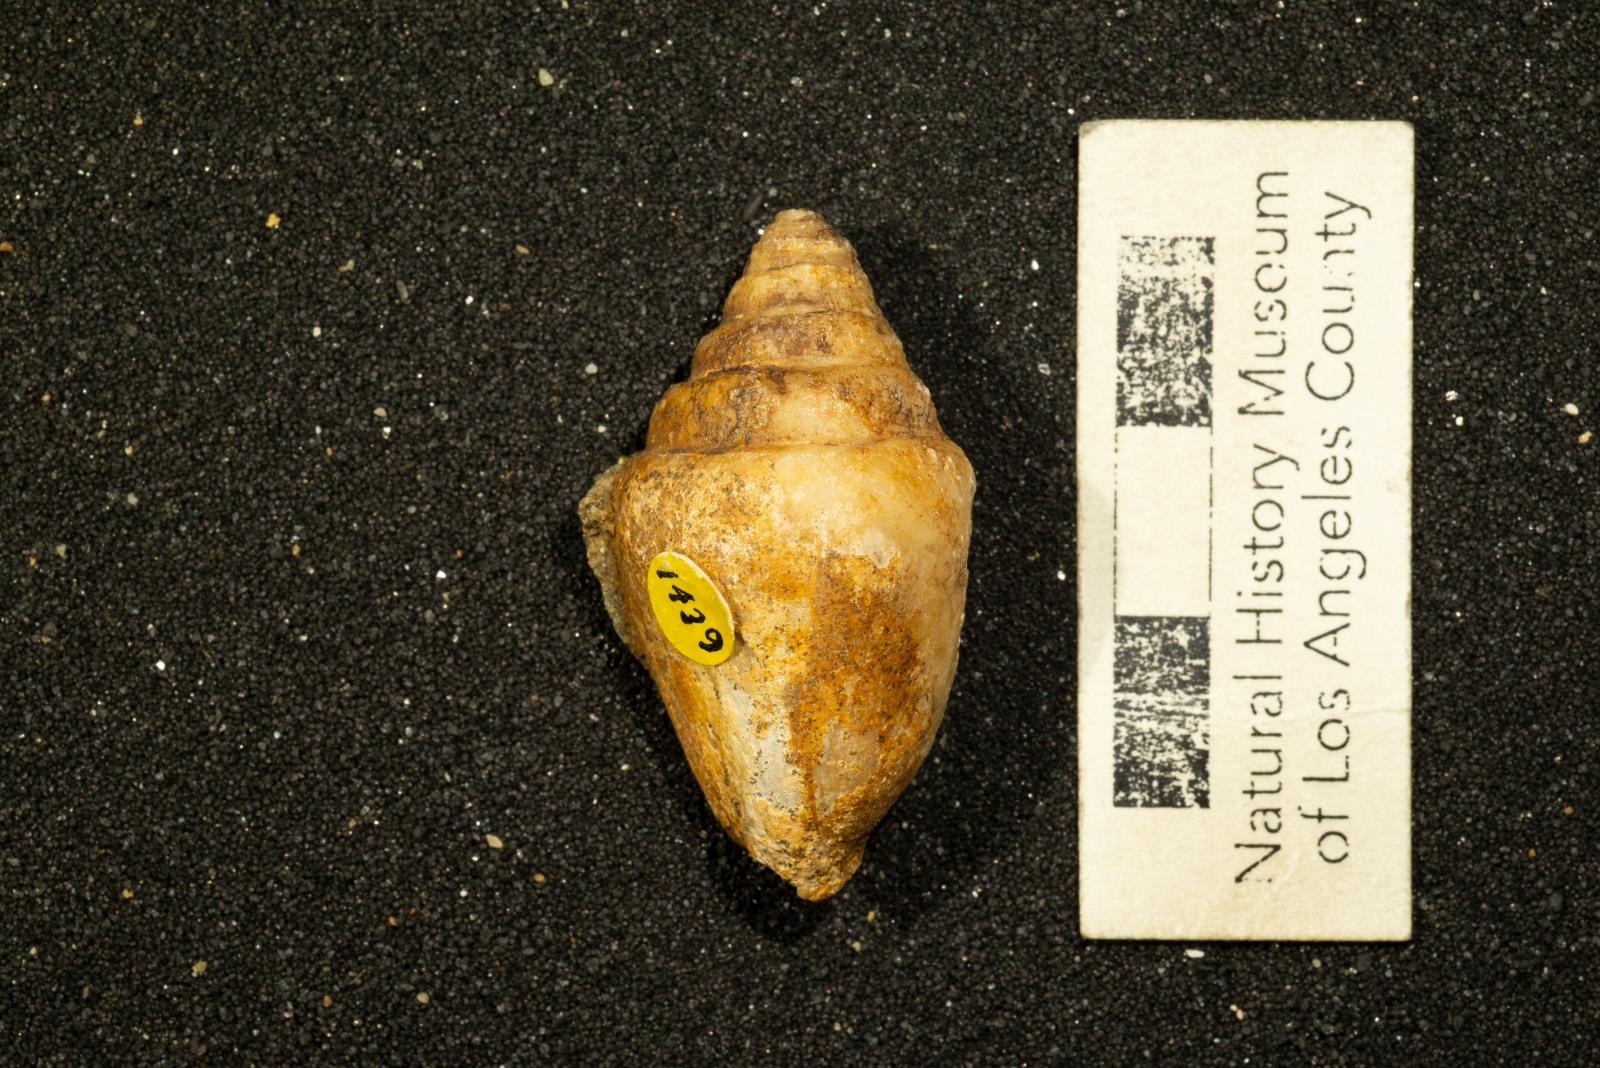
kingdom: Animalia
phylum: Mollusca
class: Gastropoda
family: Acteonellidae
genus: Trochactaeon
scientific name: Trochactaeon frazierensis
